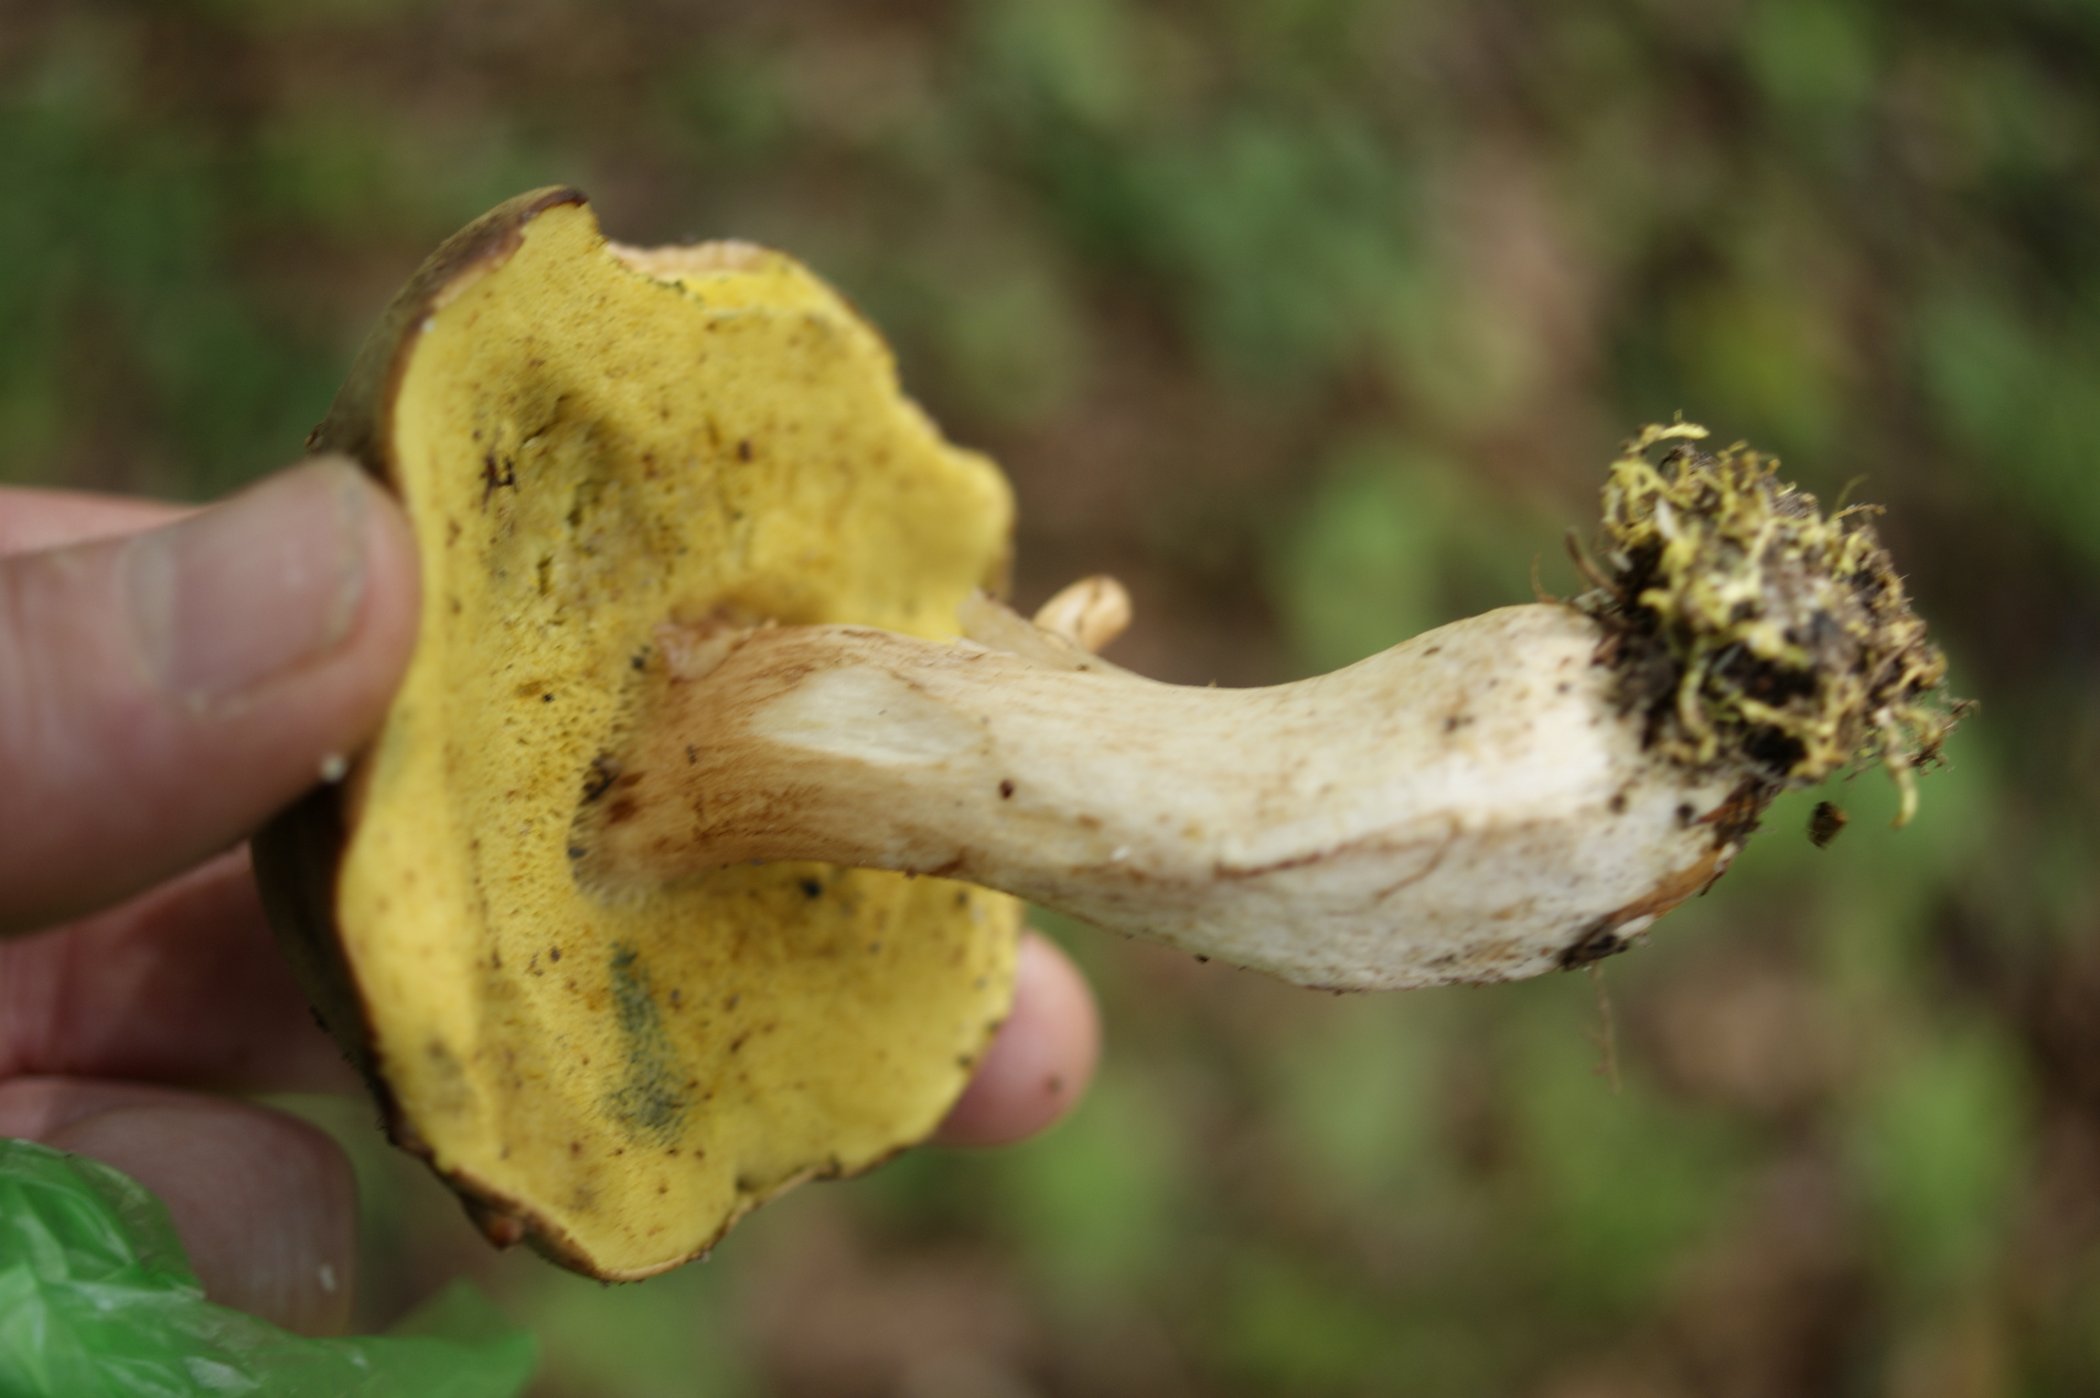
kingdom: Fungi
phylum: Basidiomycota
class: Agaricomycetes
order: Boletales
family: Boletaceae
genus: Xerocomus
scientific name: Xerocomus ferrugineus
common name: vaskeskinds-rørhat
